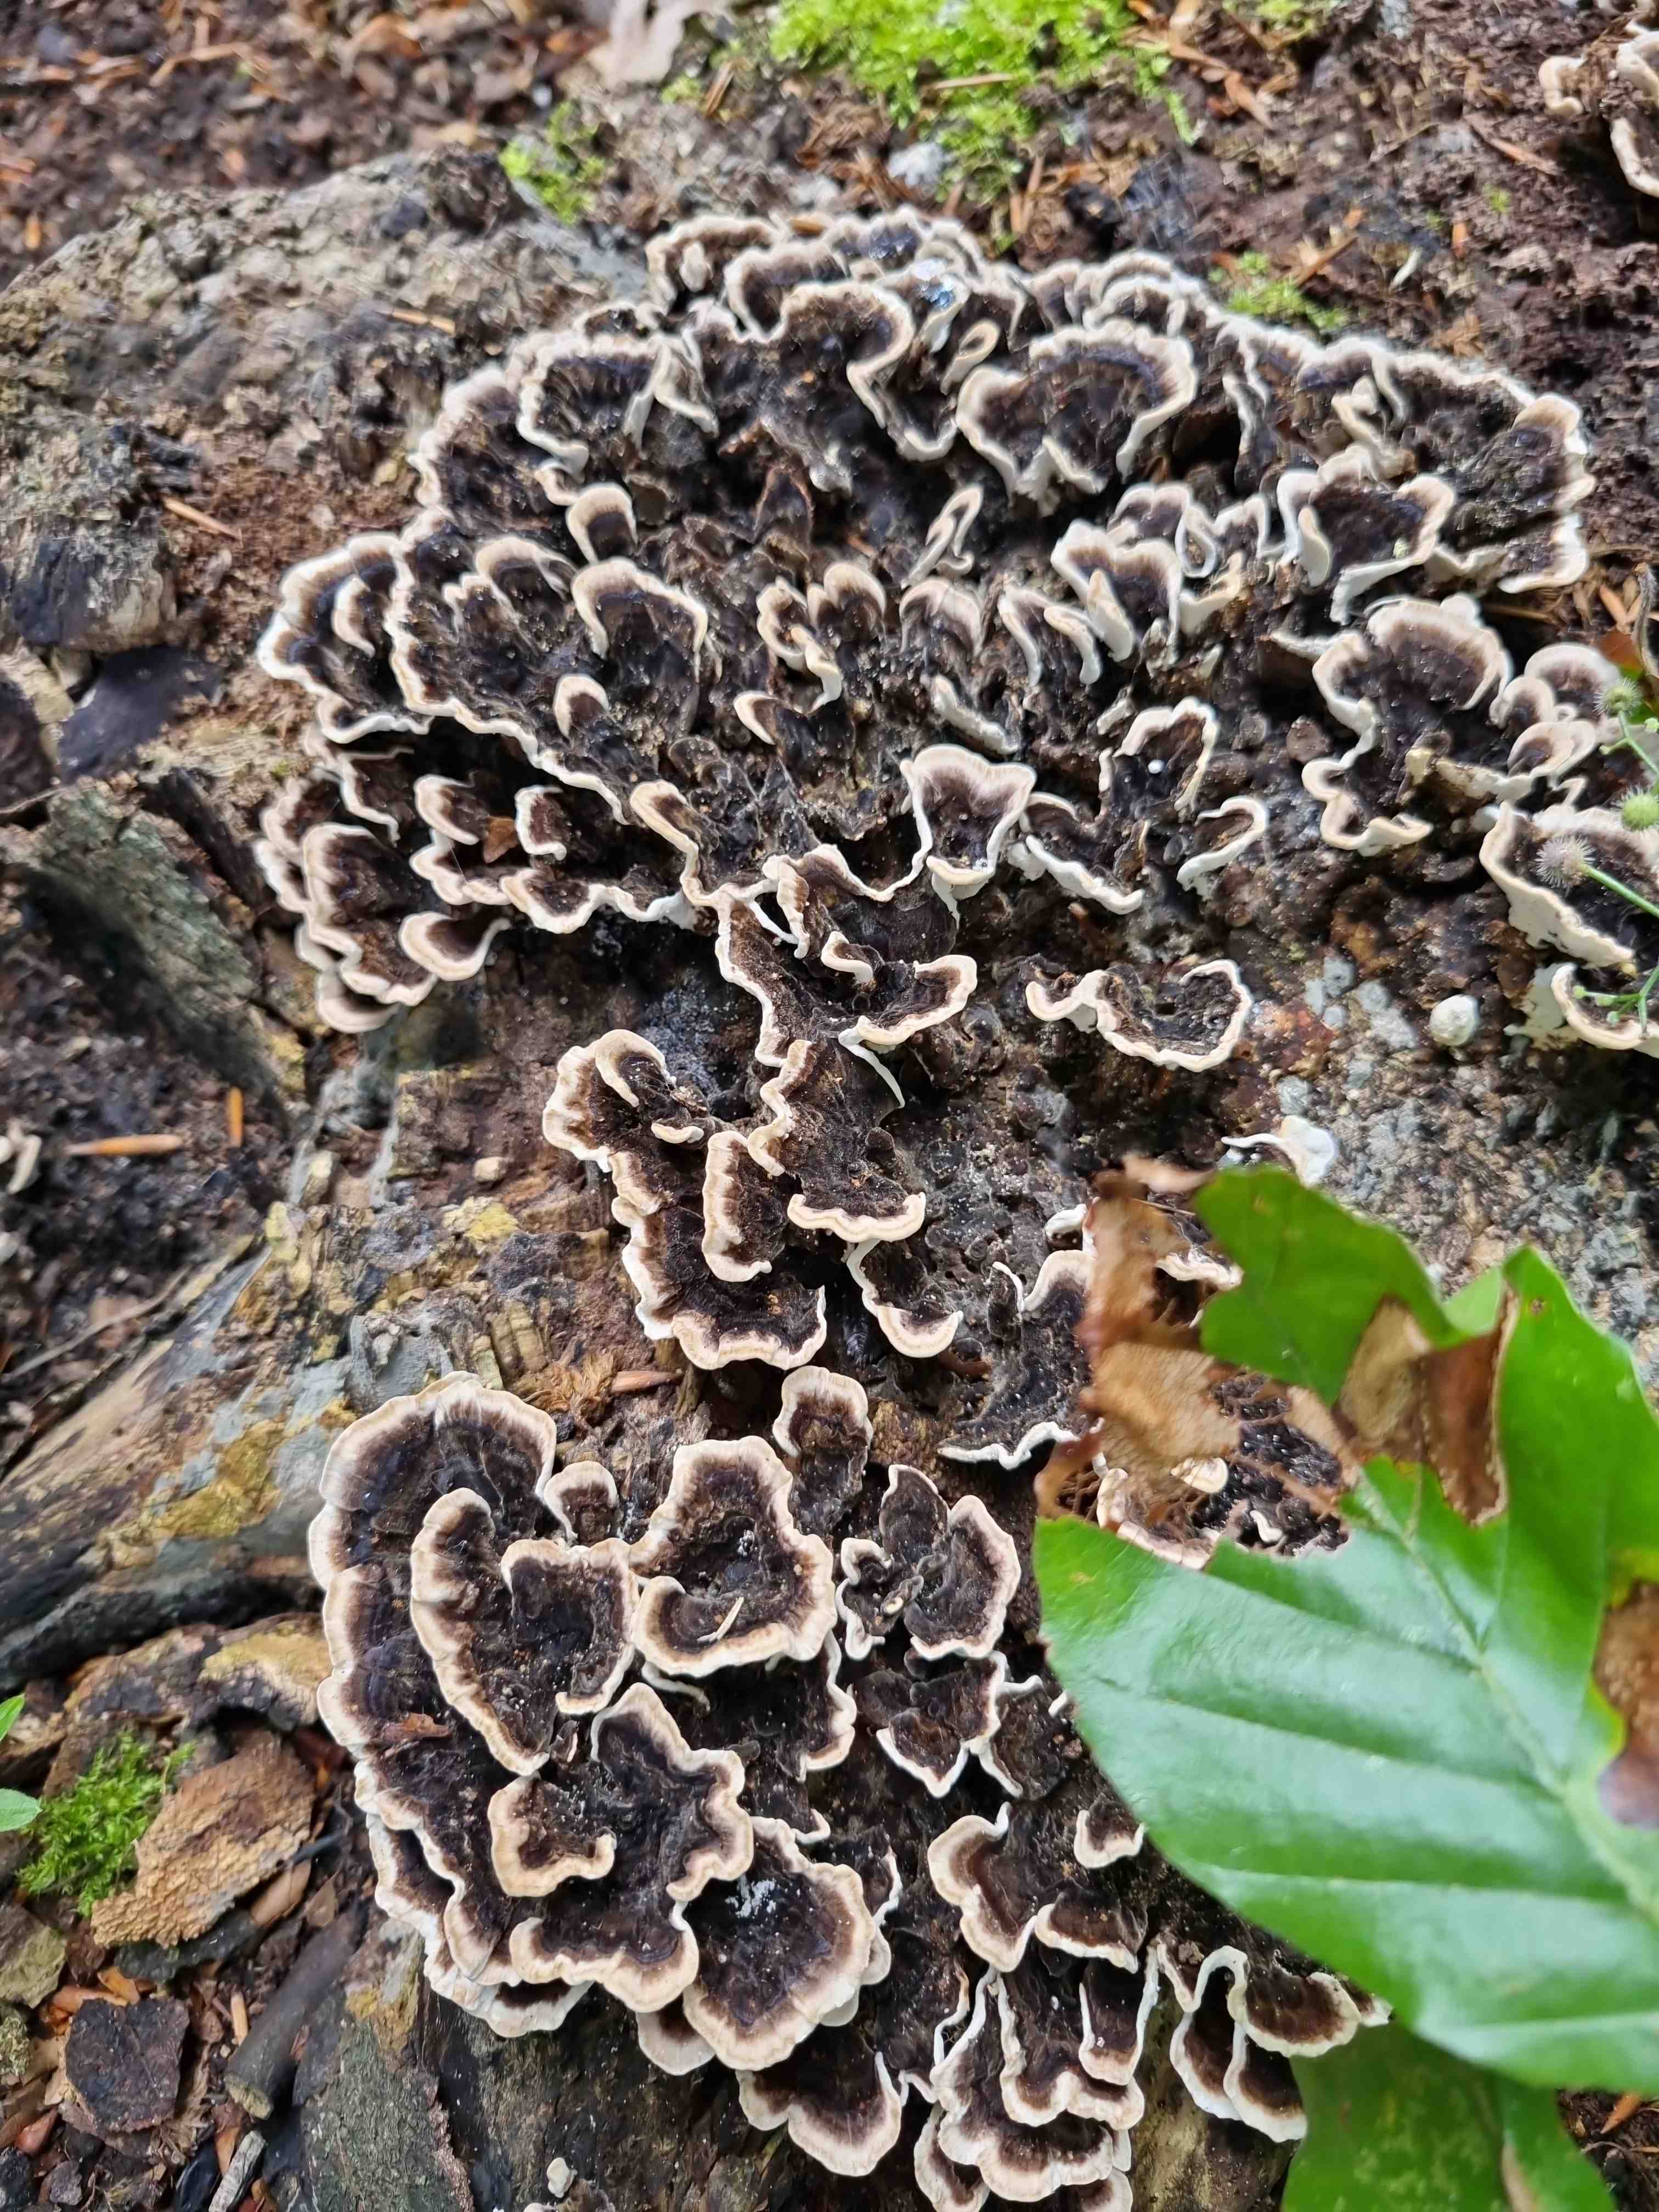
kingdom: Fungi
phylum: Basidiomycota
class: Agaricomycetes
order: Polyporales
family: Polyporaceae
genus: Trametes
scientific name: Trametes versicolor
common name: broget læderporesvamp
